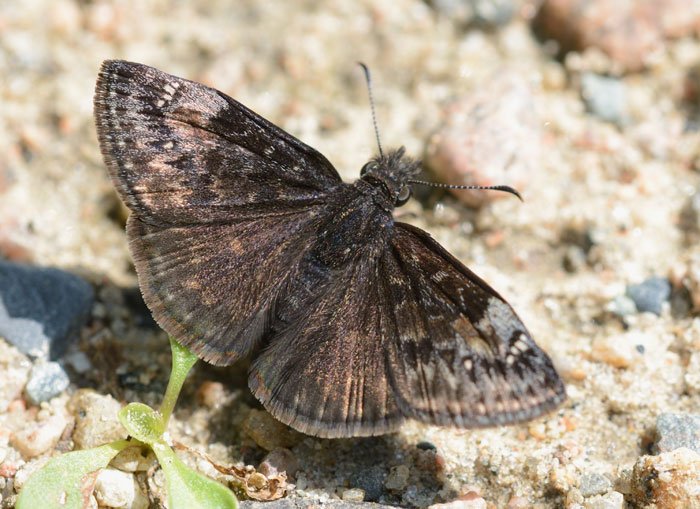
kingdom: Animalia
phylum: Arthropoda
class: Insecta
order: Lepidoptera
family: Hesperiidae
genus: Gesta
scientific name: Gesta
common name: Columbine Duskywing
